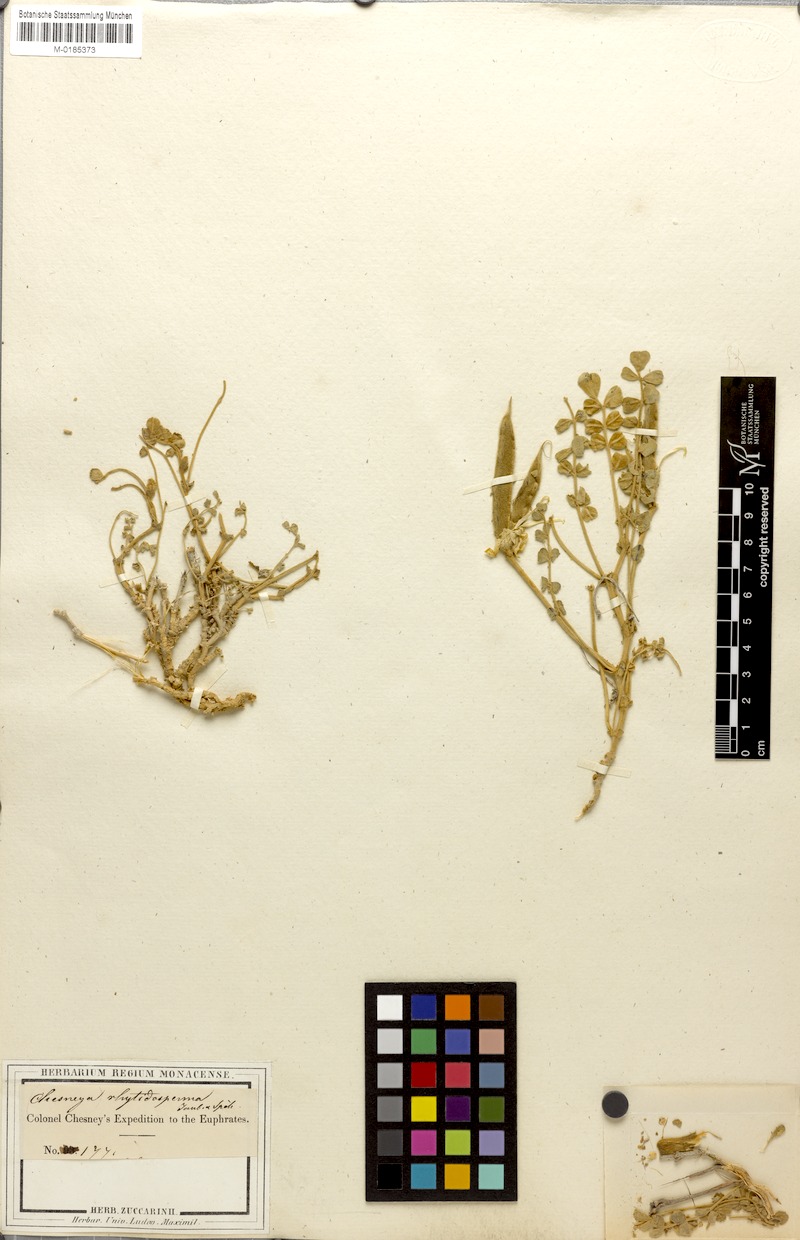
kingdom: Plantae
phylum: Tracheophyta
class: Magnoliopsida
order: Fabales
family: Fabaceae
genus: Chesneya
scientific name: Chesneya rytidosperma
